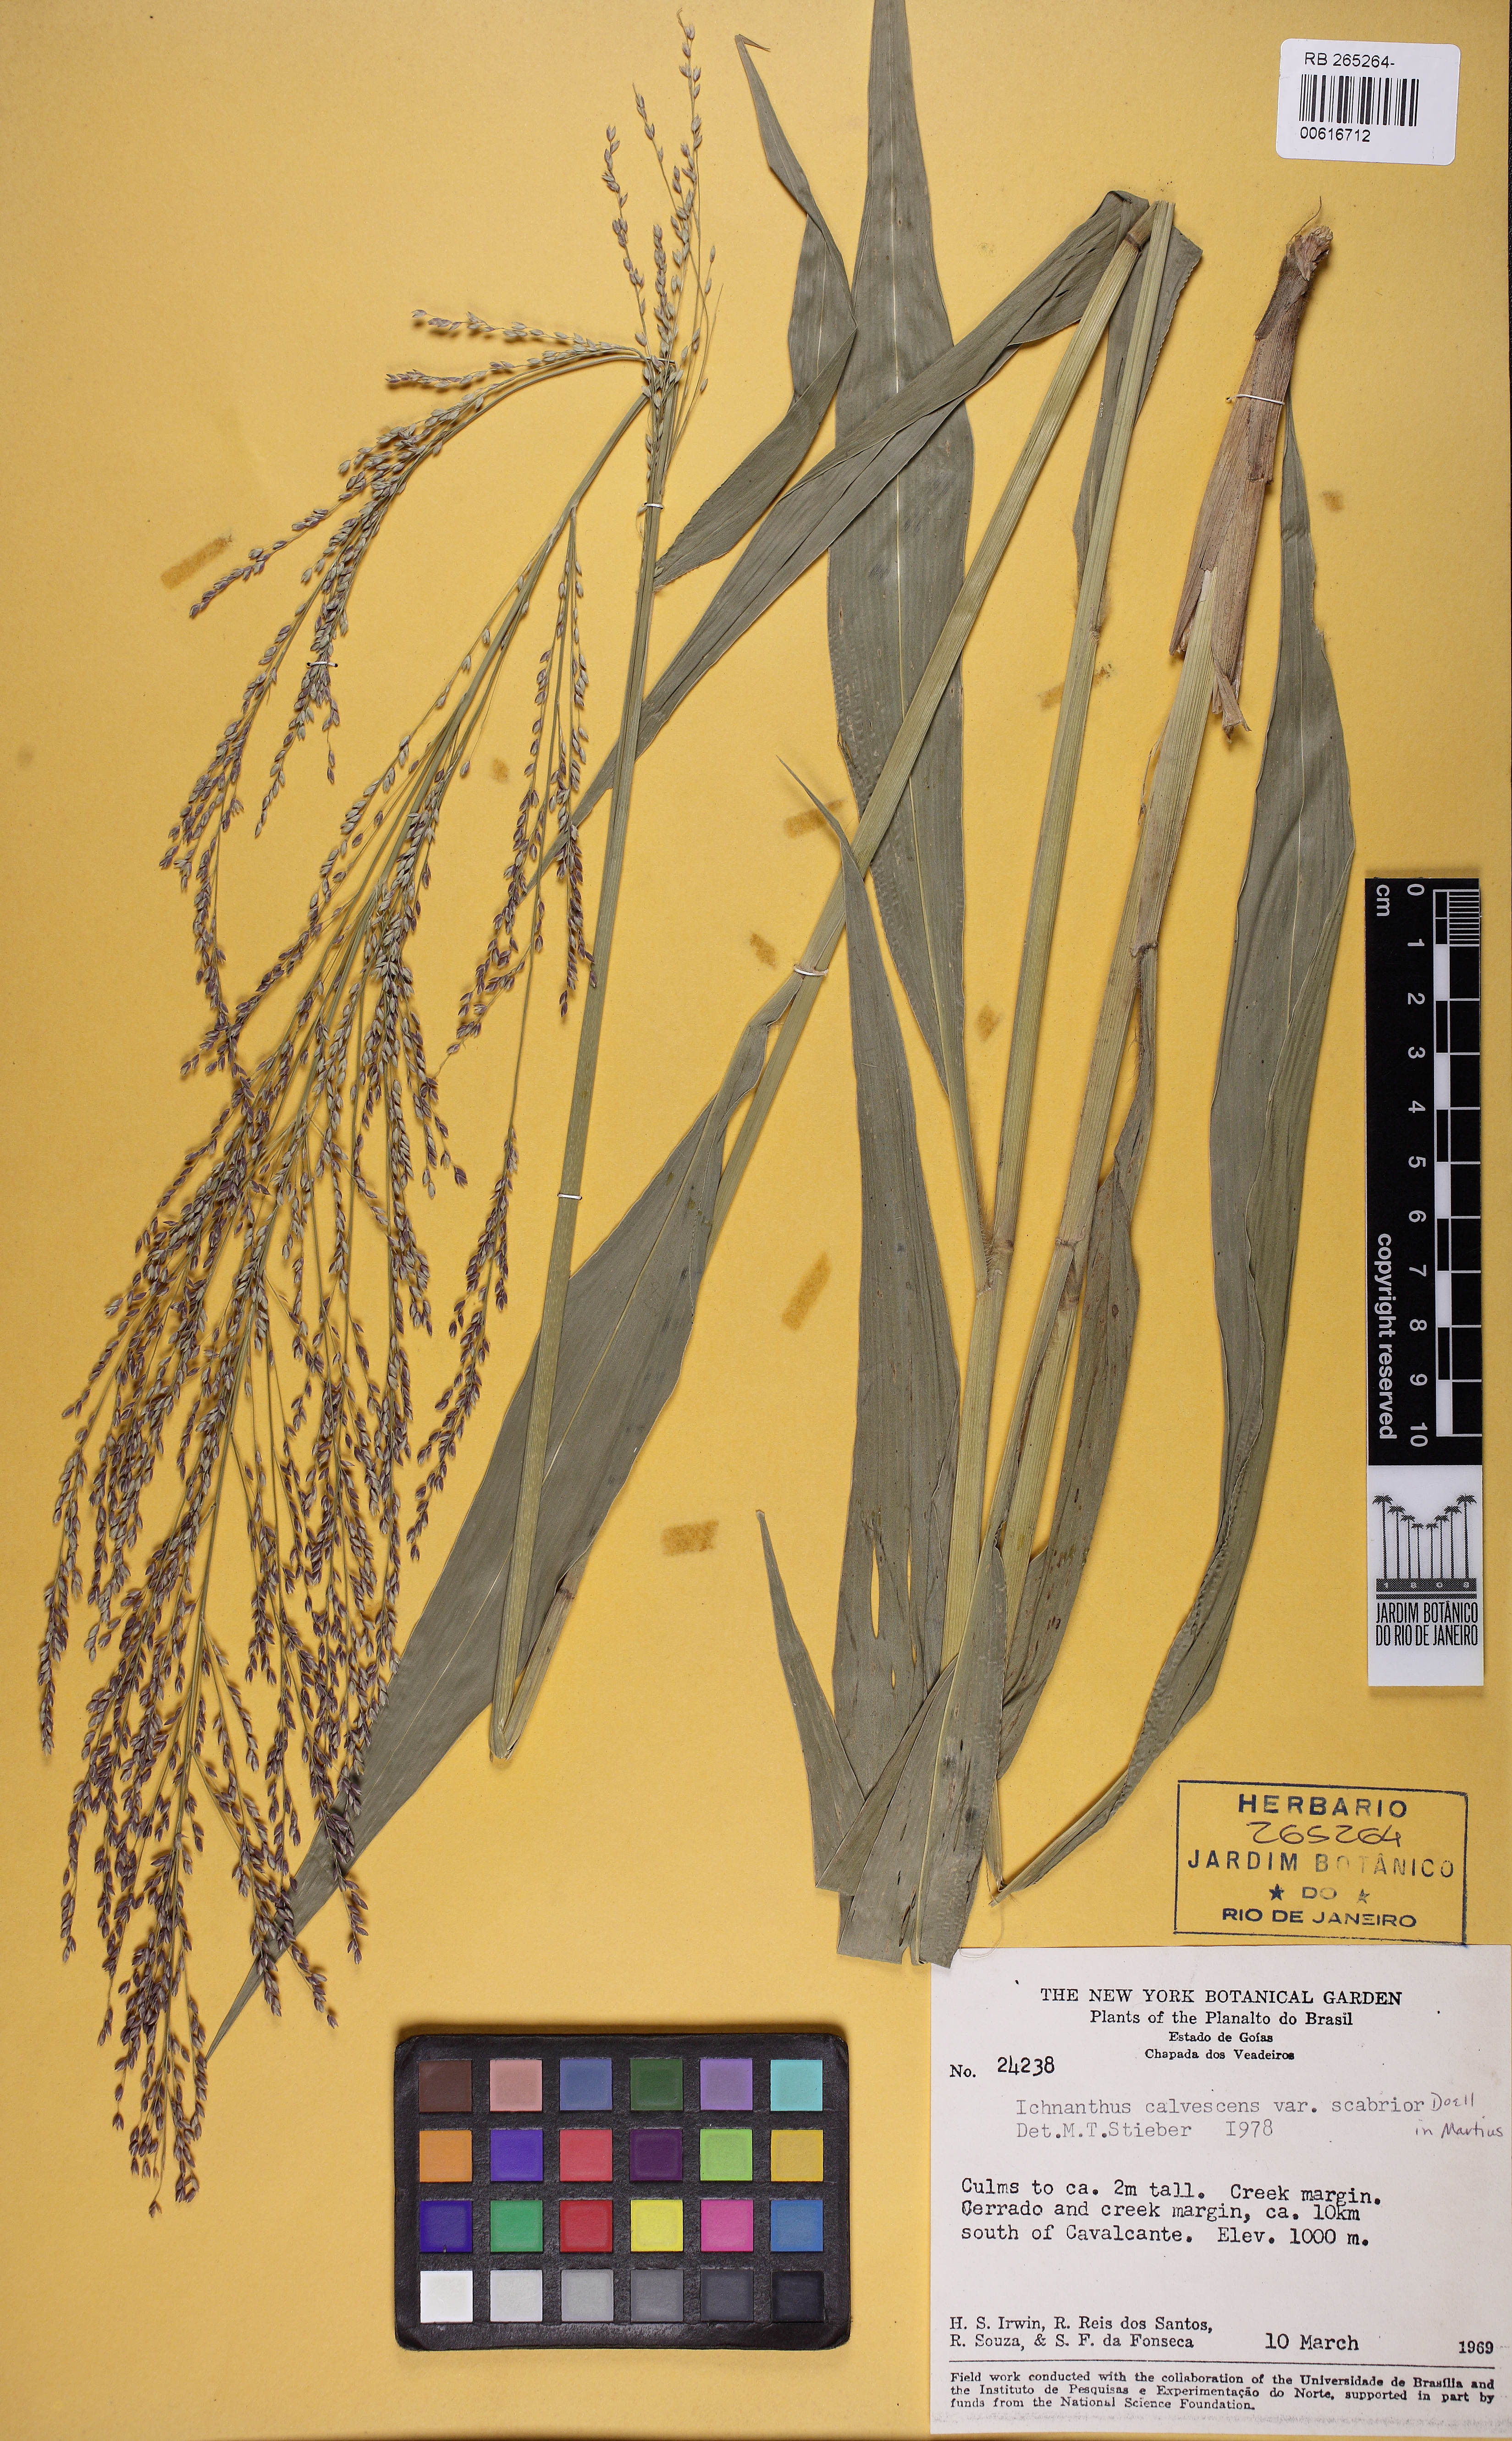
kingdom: Plantae
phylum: Tracheophyta
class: Liliopsida
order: Poales
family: Poaceae
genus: Ichnanthus
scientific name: Ichnanthus calvescens
